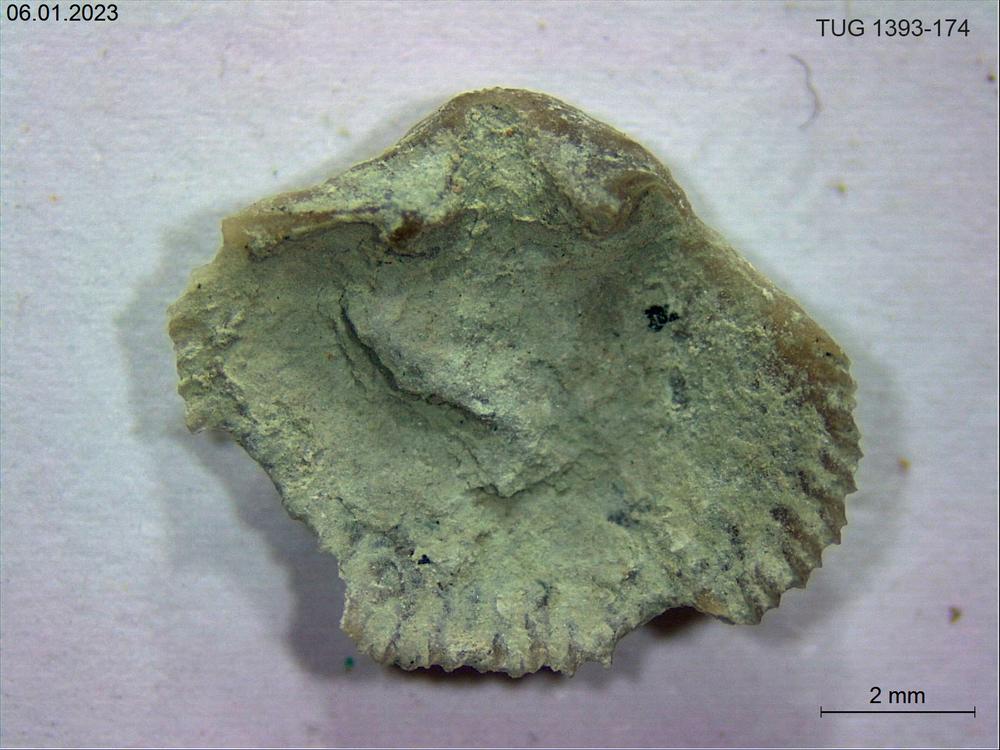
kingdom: Animalia
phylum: Brachiopoda
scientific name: Brachiopoda
